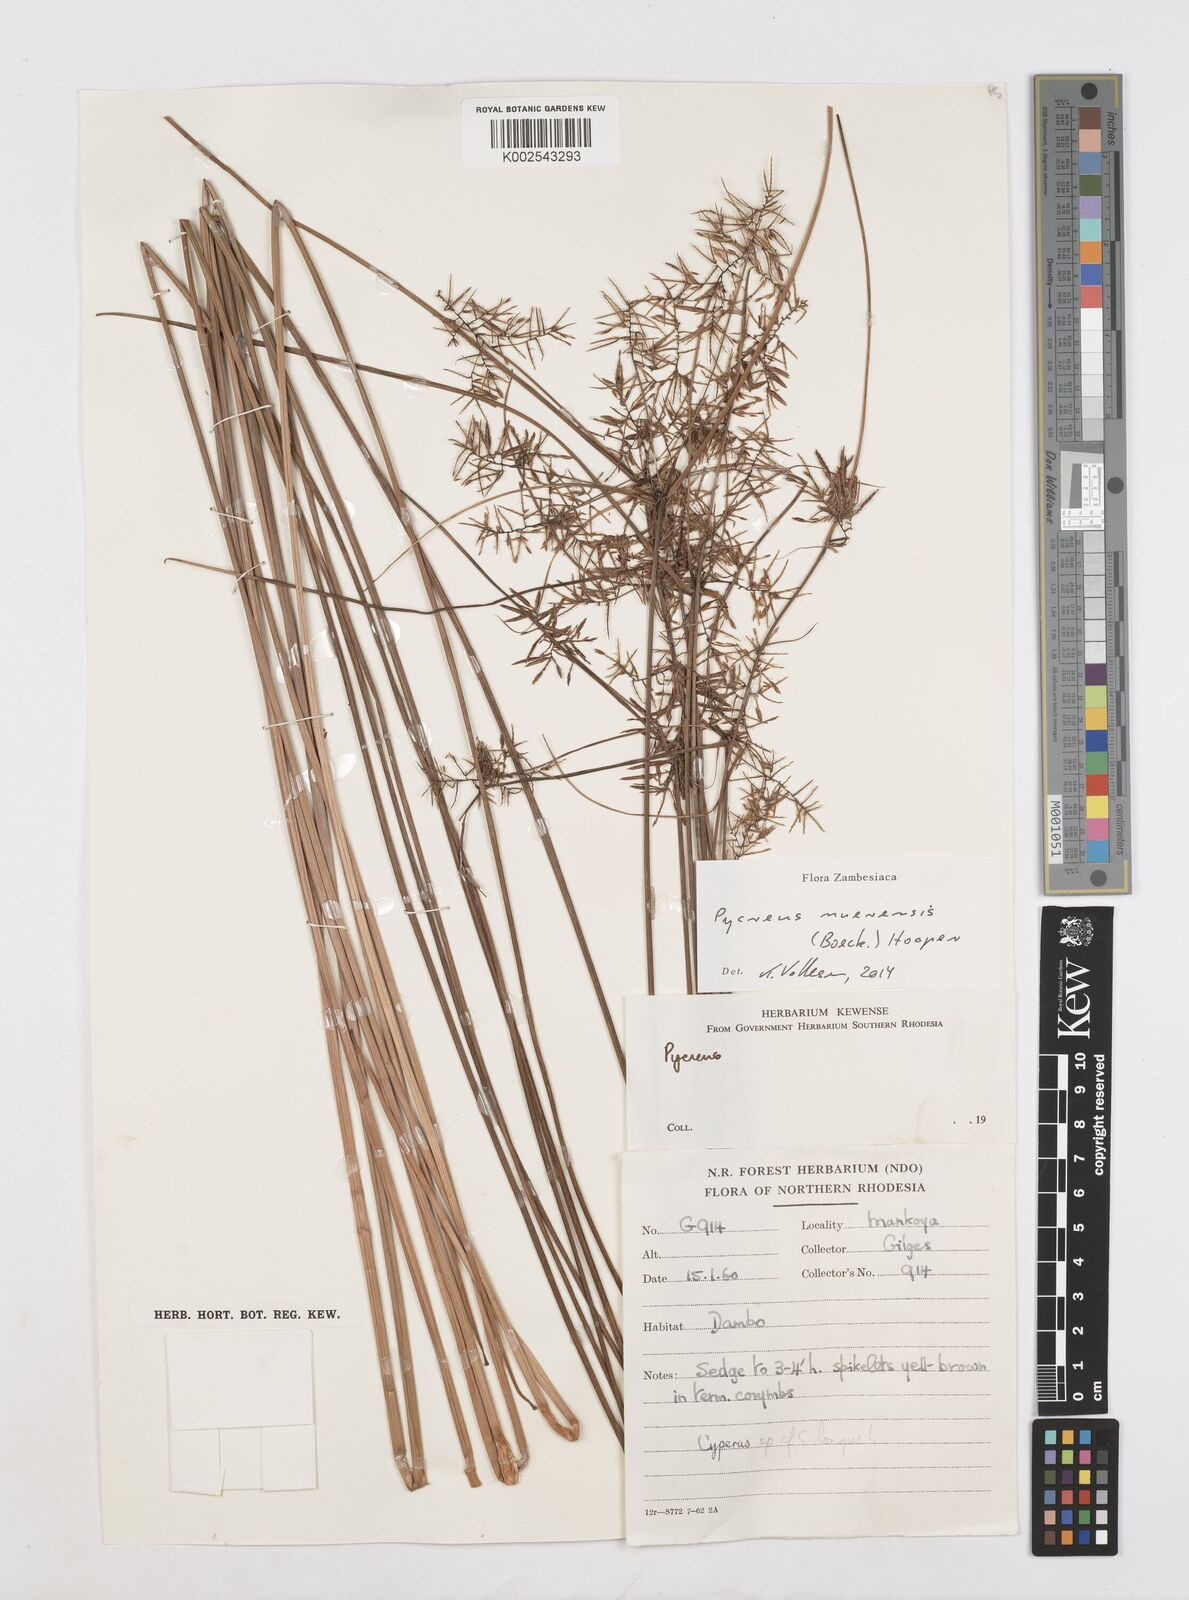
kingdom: Plantae
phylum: Tracheophyta
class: Liliopsida
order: Poales
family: Cyperaceae
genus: Cyperus
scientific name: Cyperus nuerensis
